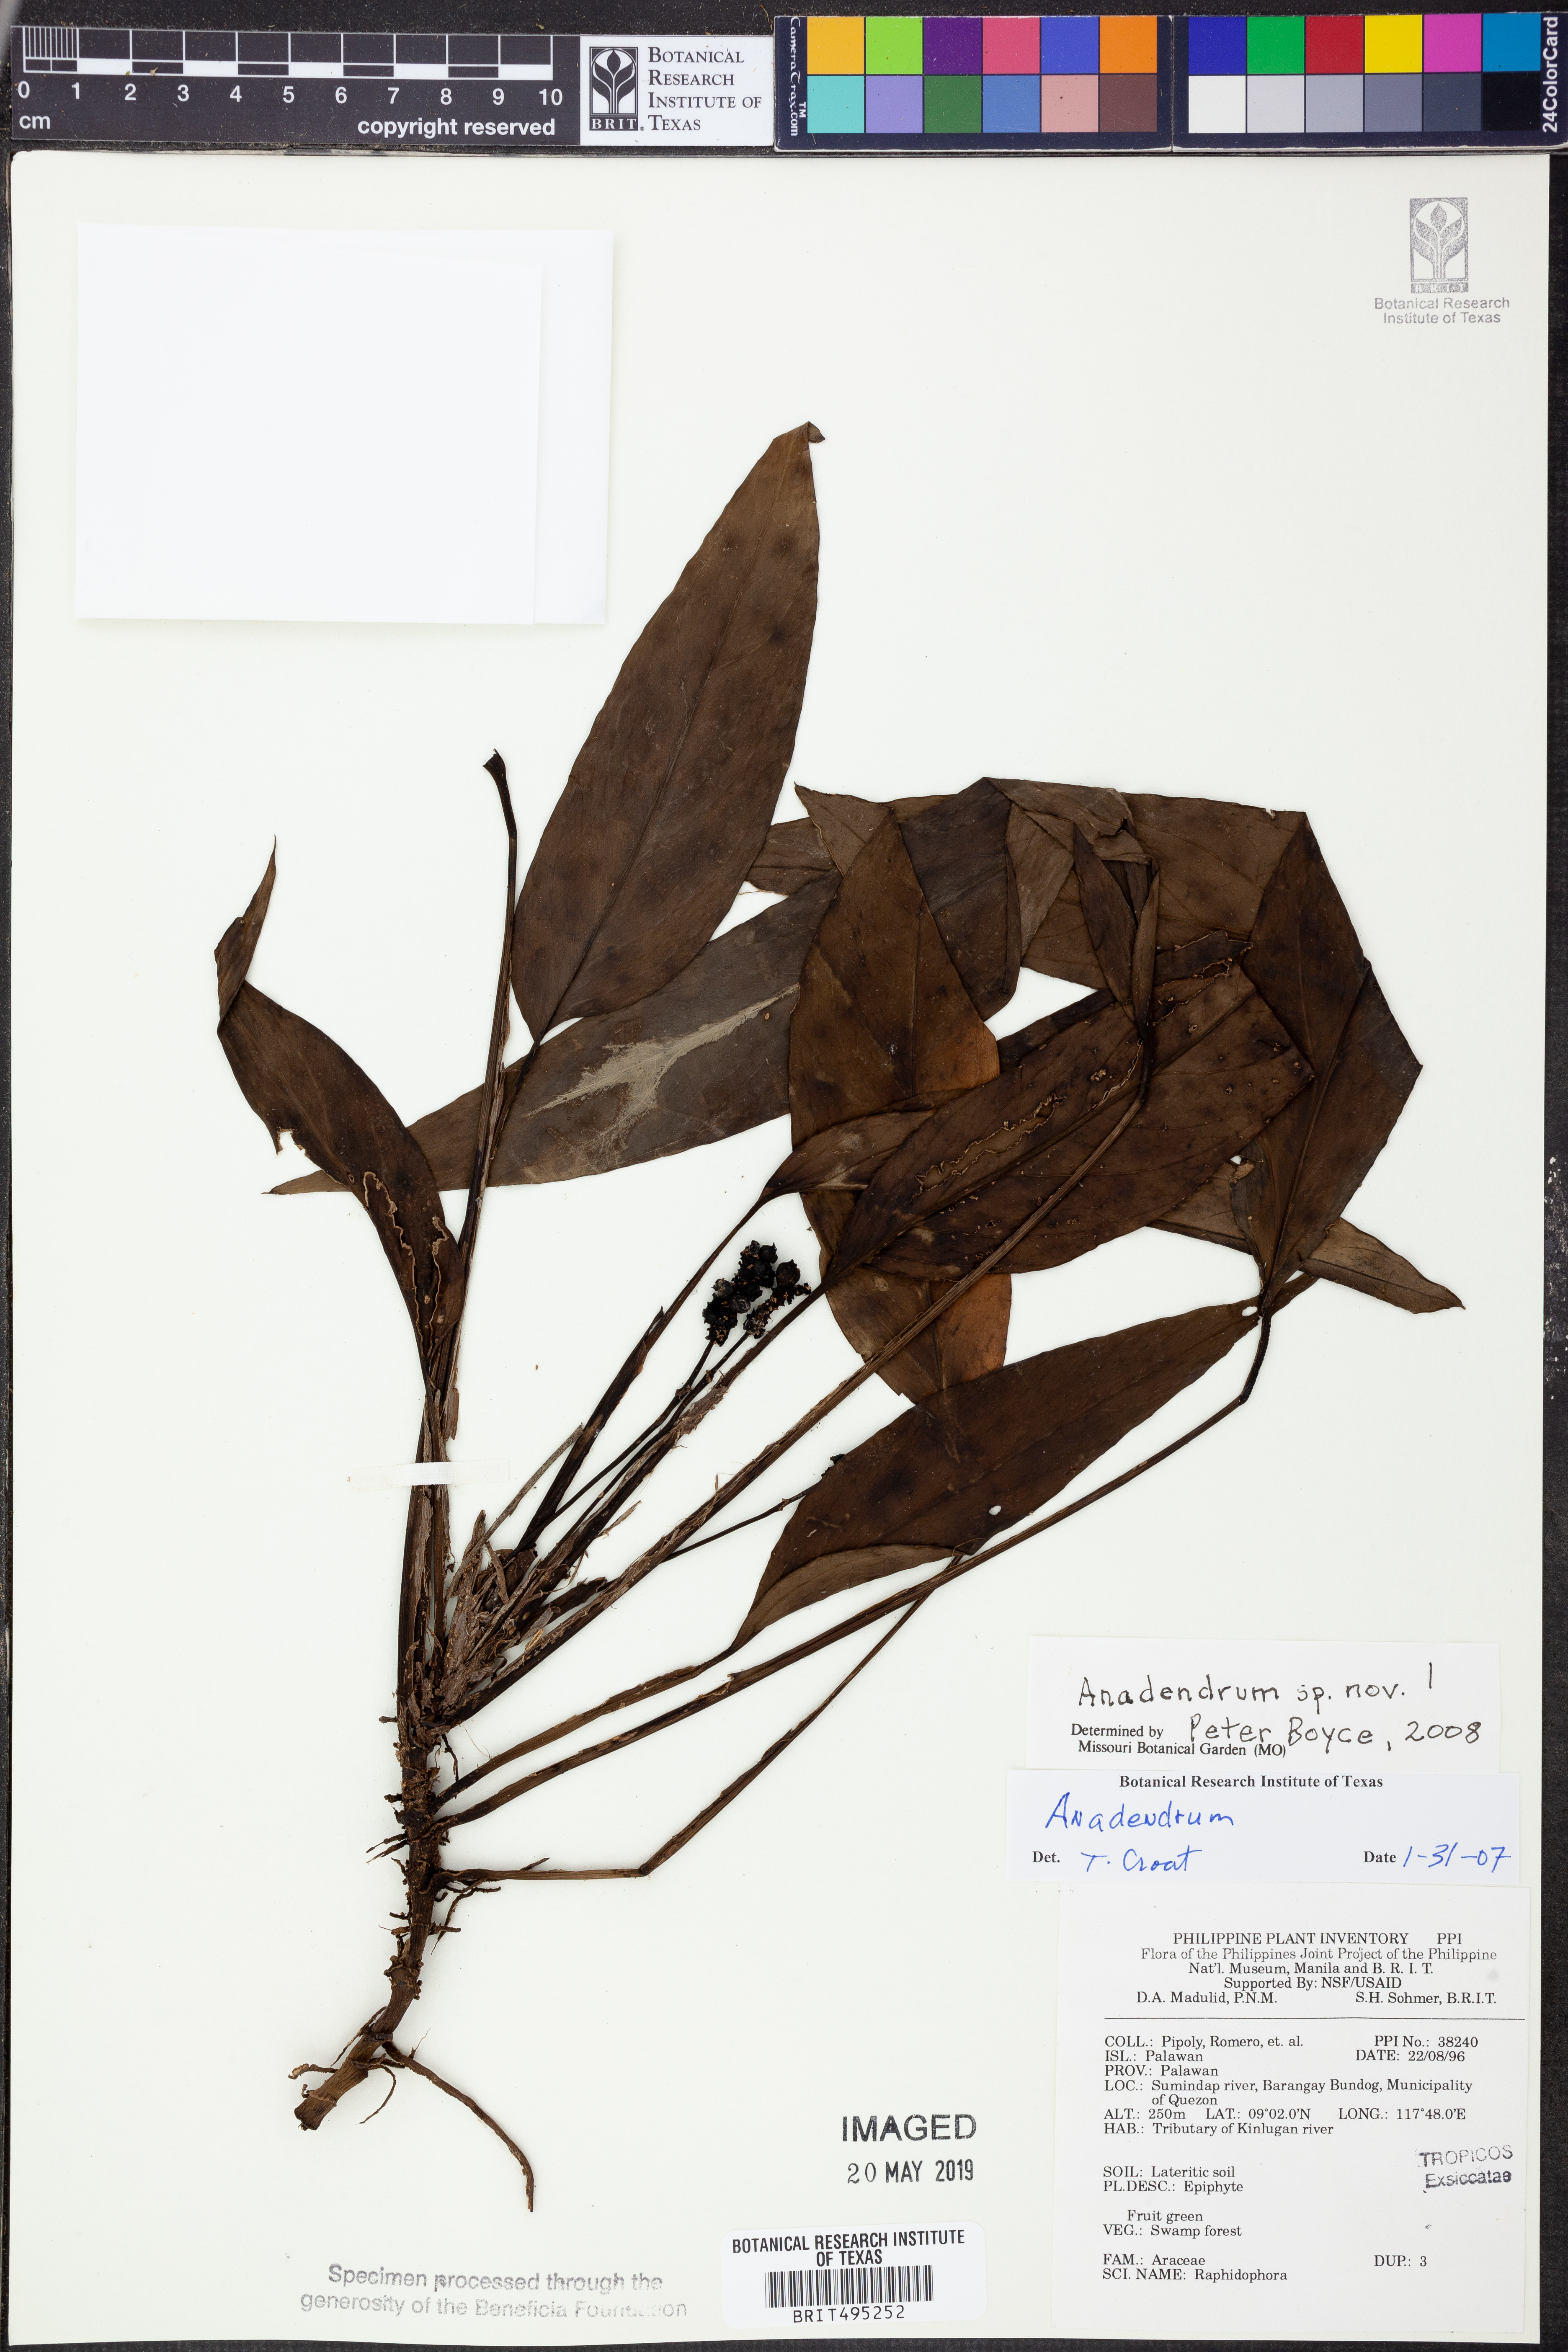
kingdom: Plantae
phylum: Tracheophyta
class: Liliopsida
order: Alismatales
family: Araceae
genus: Anadendrum
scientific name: Anadendrum
